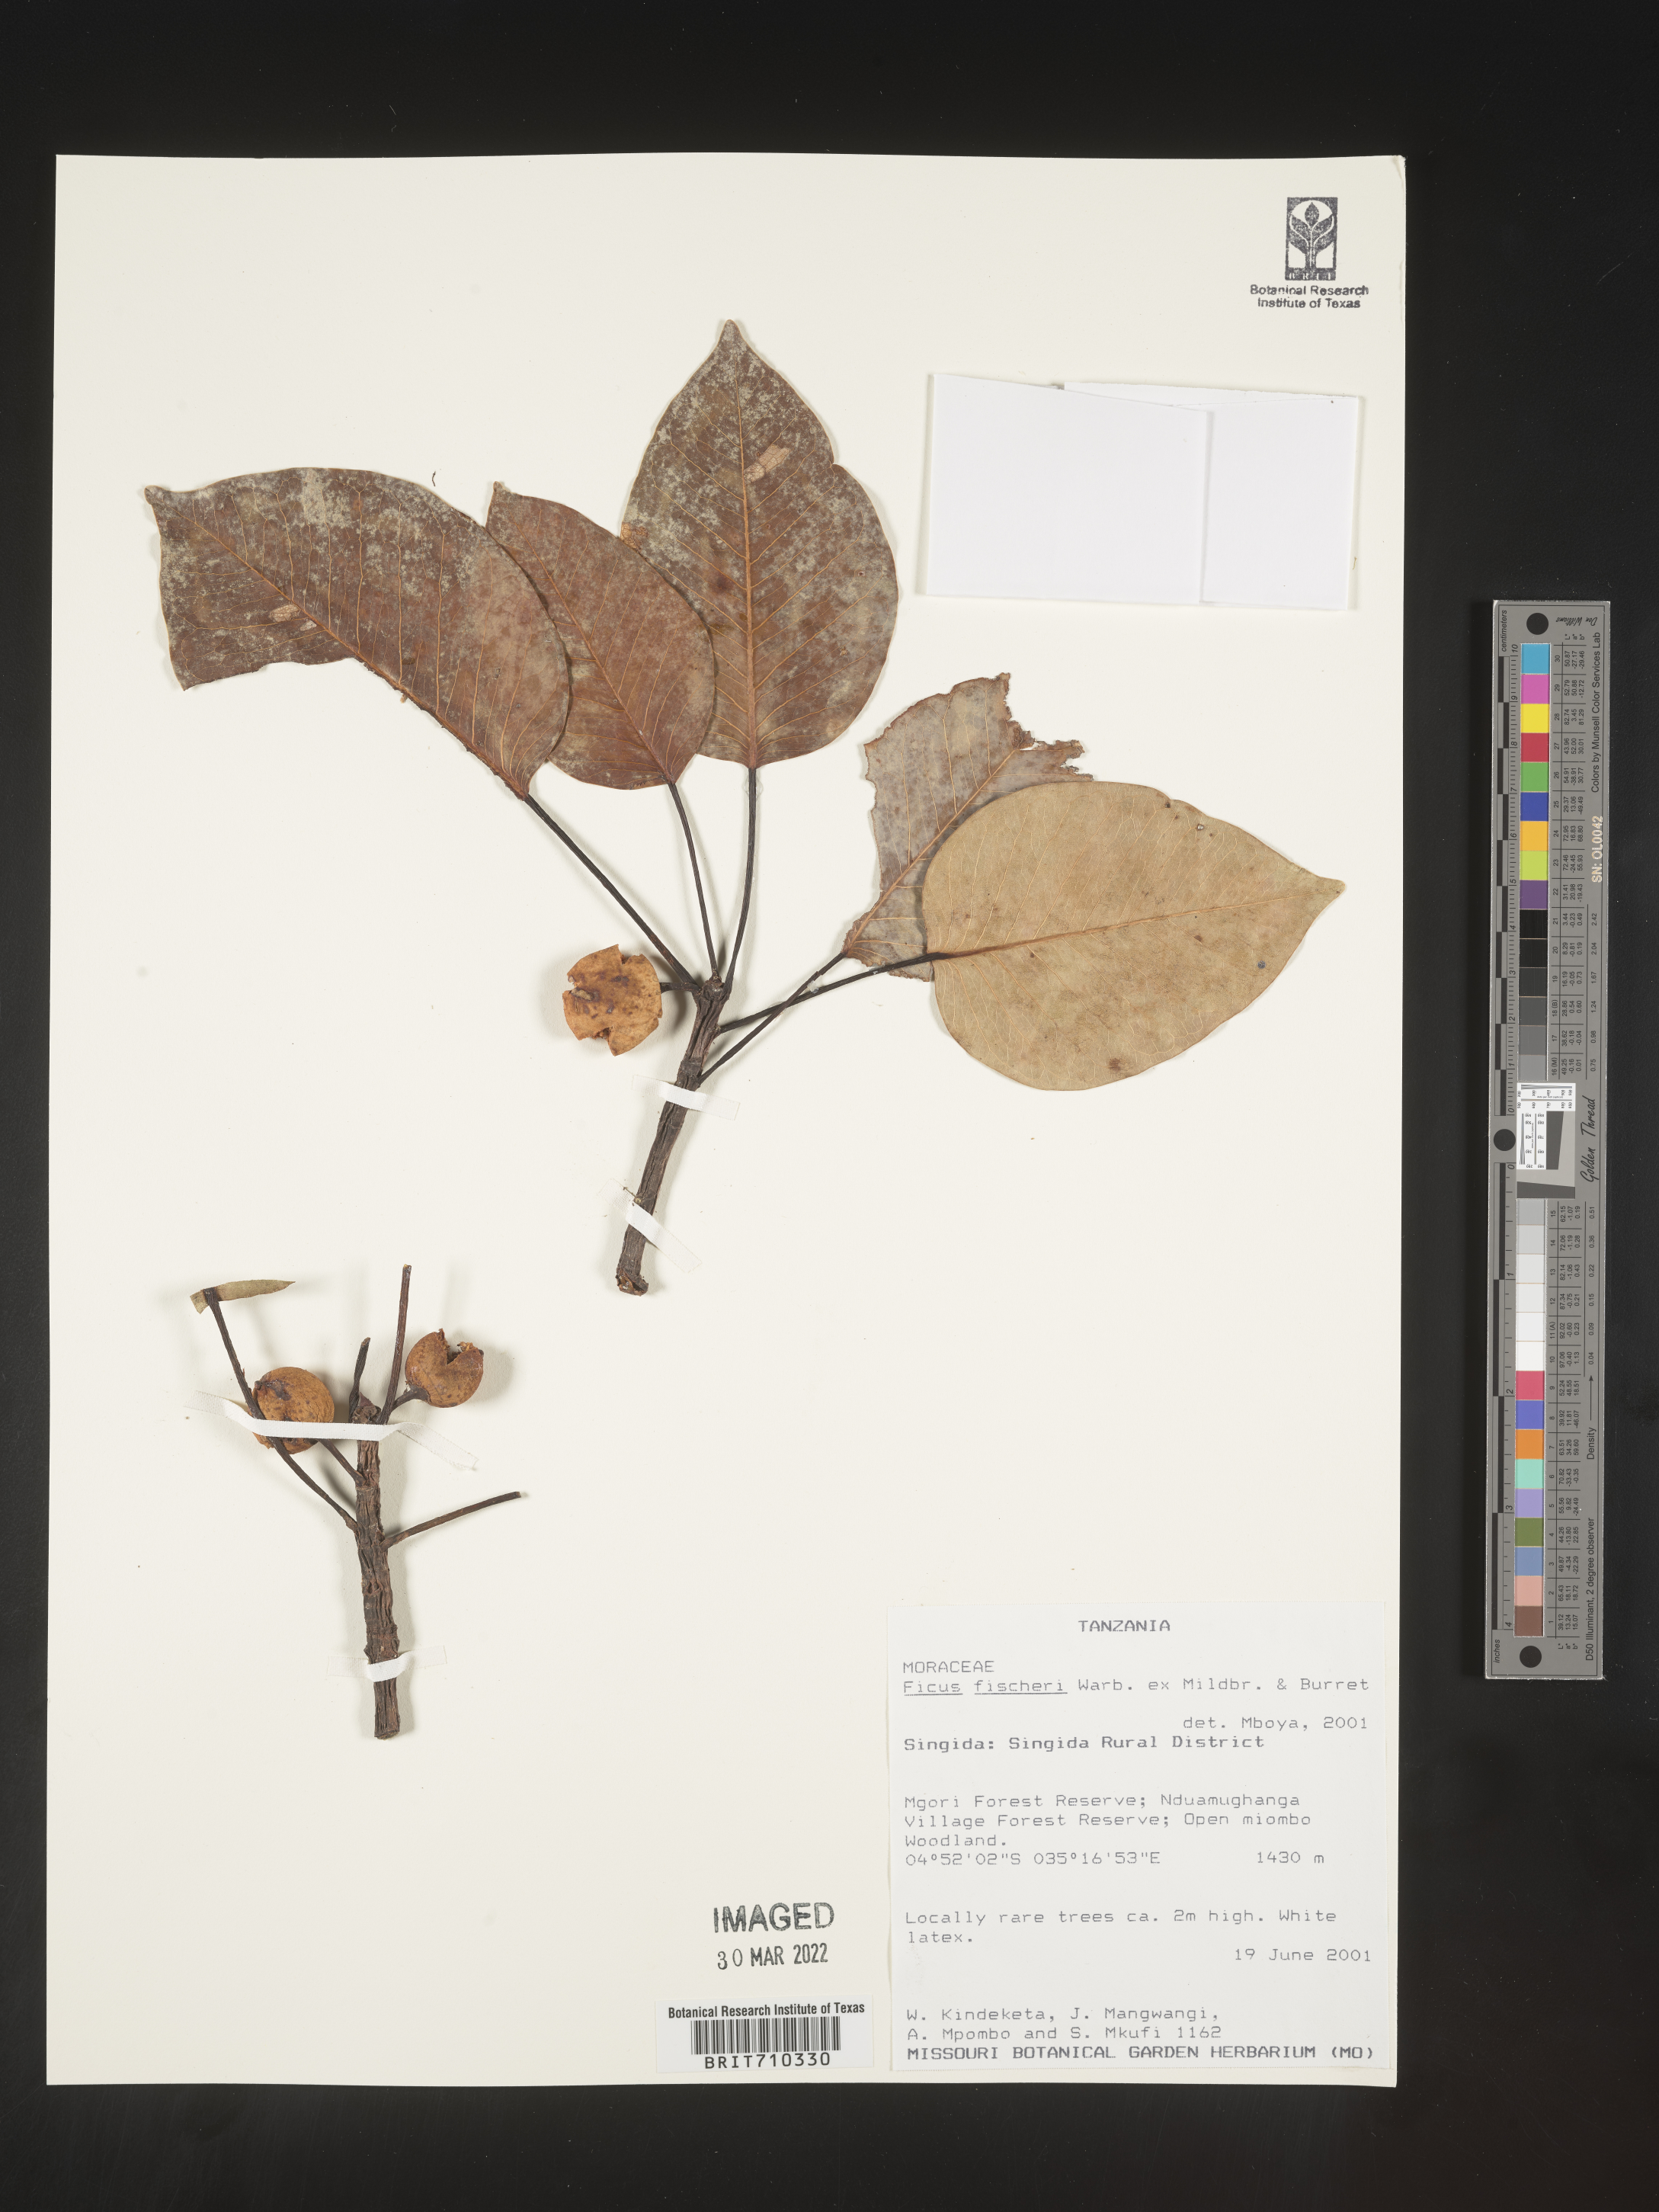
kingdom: Plantae
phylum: Tracheophyta
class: Magnoliopsida
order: Rosales
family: Moraceae
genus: Ficus
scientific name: Ficus
